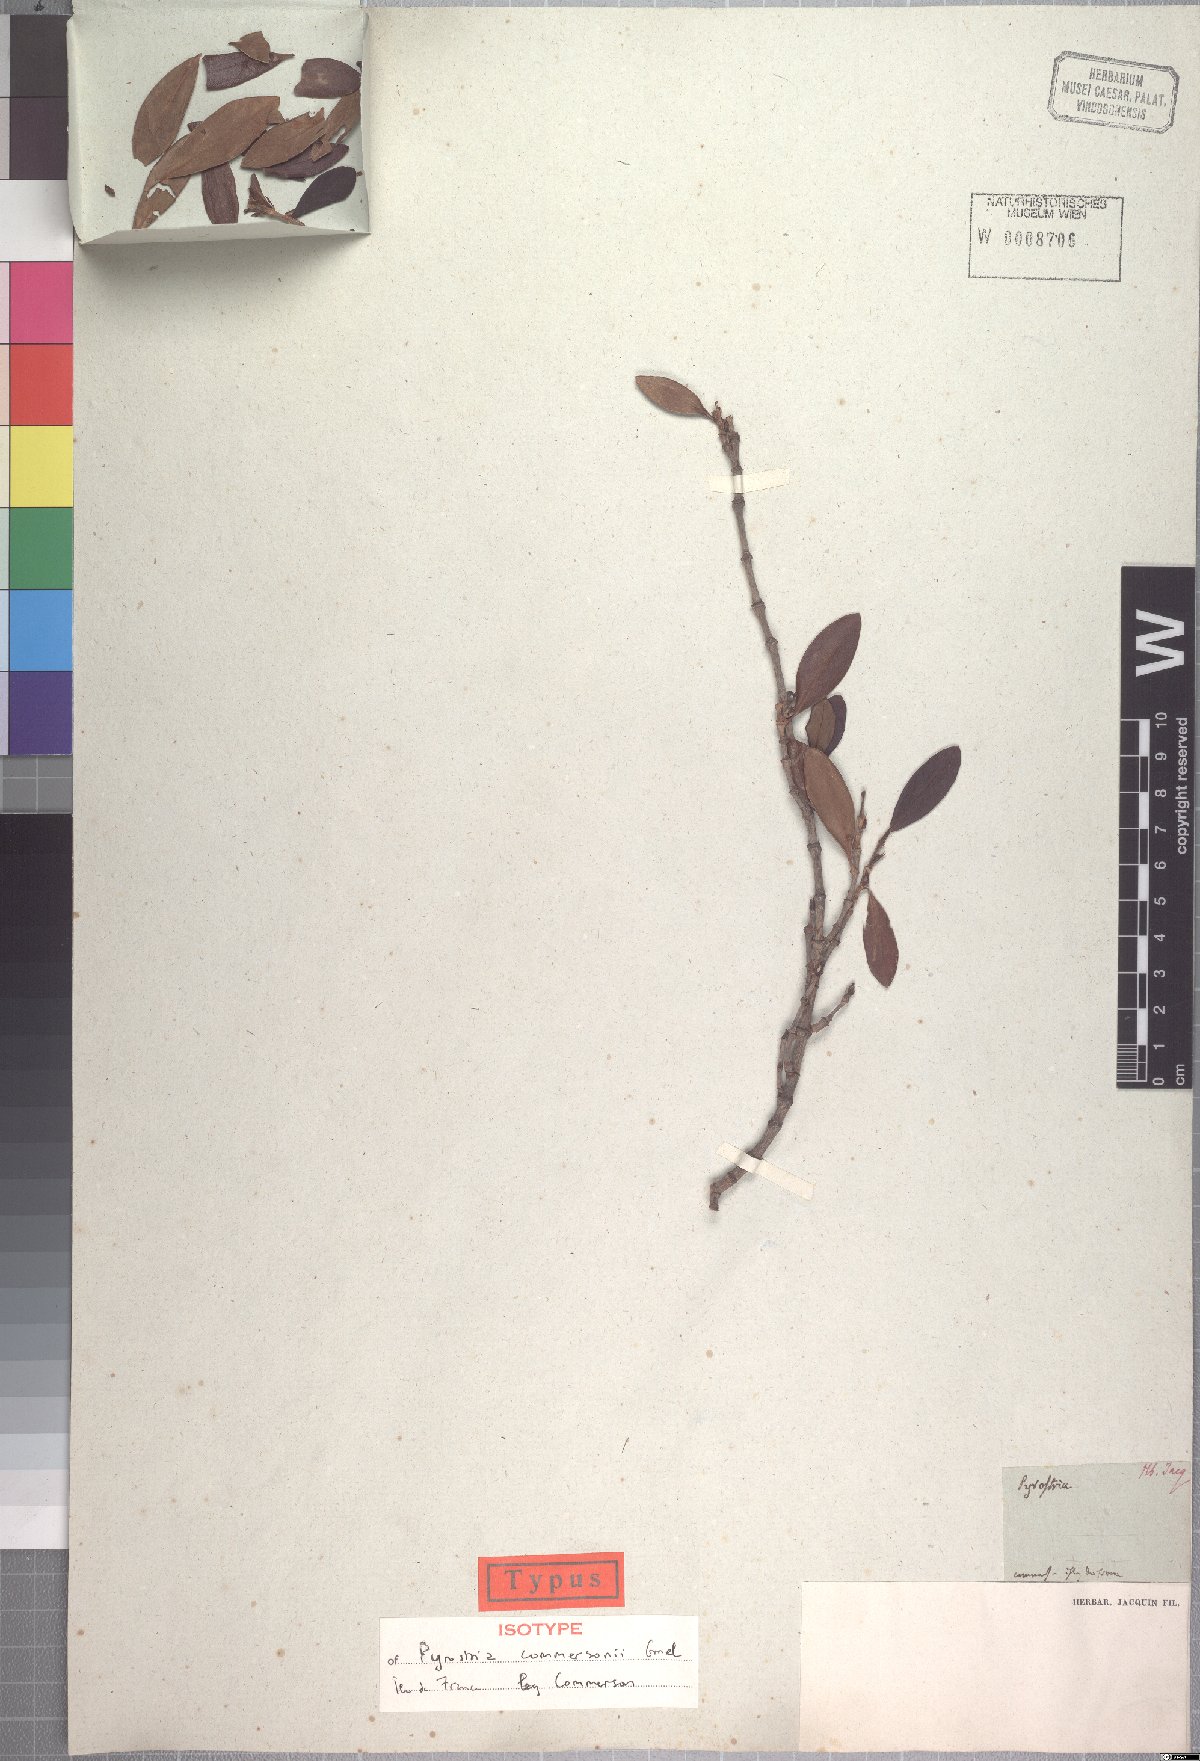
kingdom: Plantae
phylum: Tracheophyta
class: Magnoliopsida
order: Gentianales
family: Rubiaceae
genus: Pyrostria
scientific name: Pyrostria commersonii
